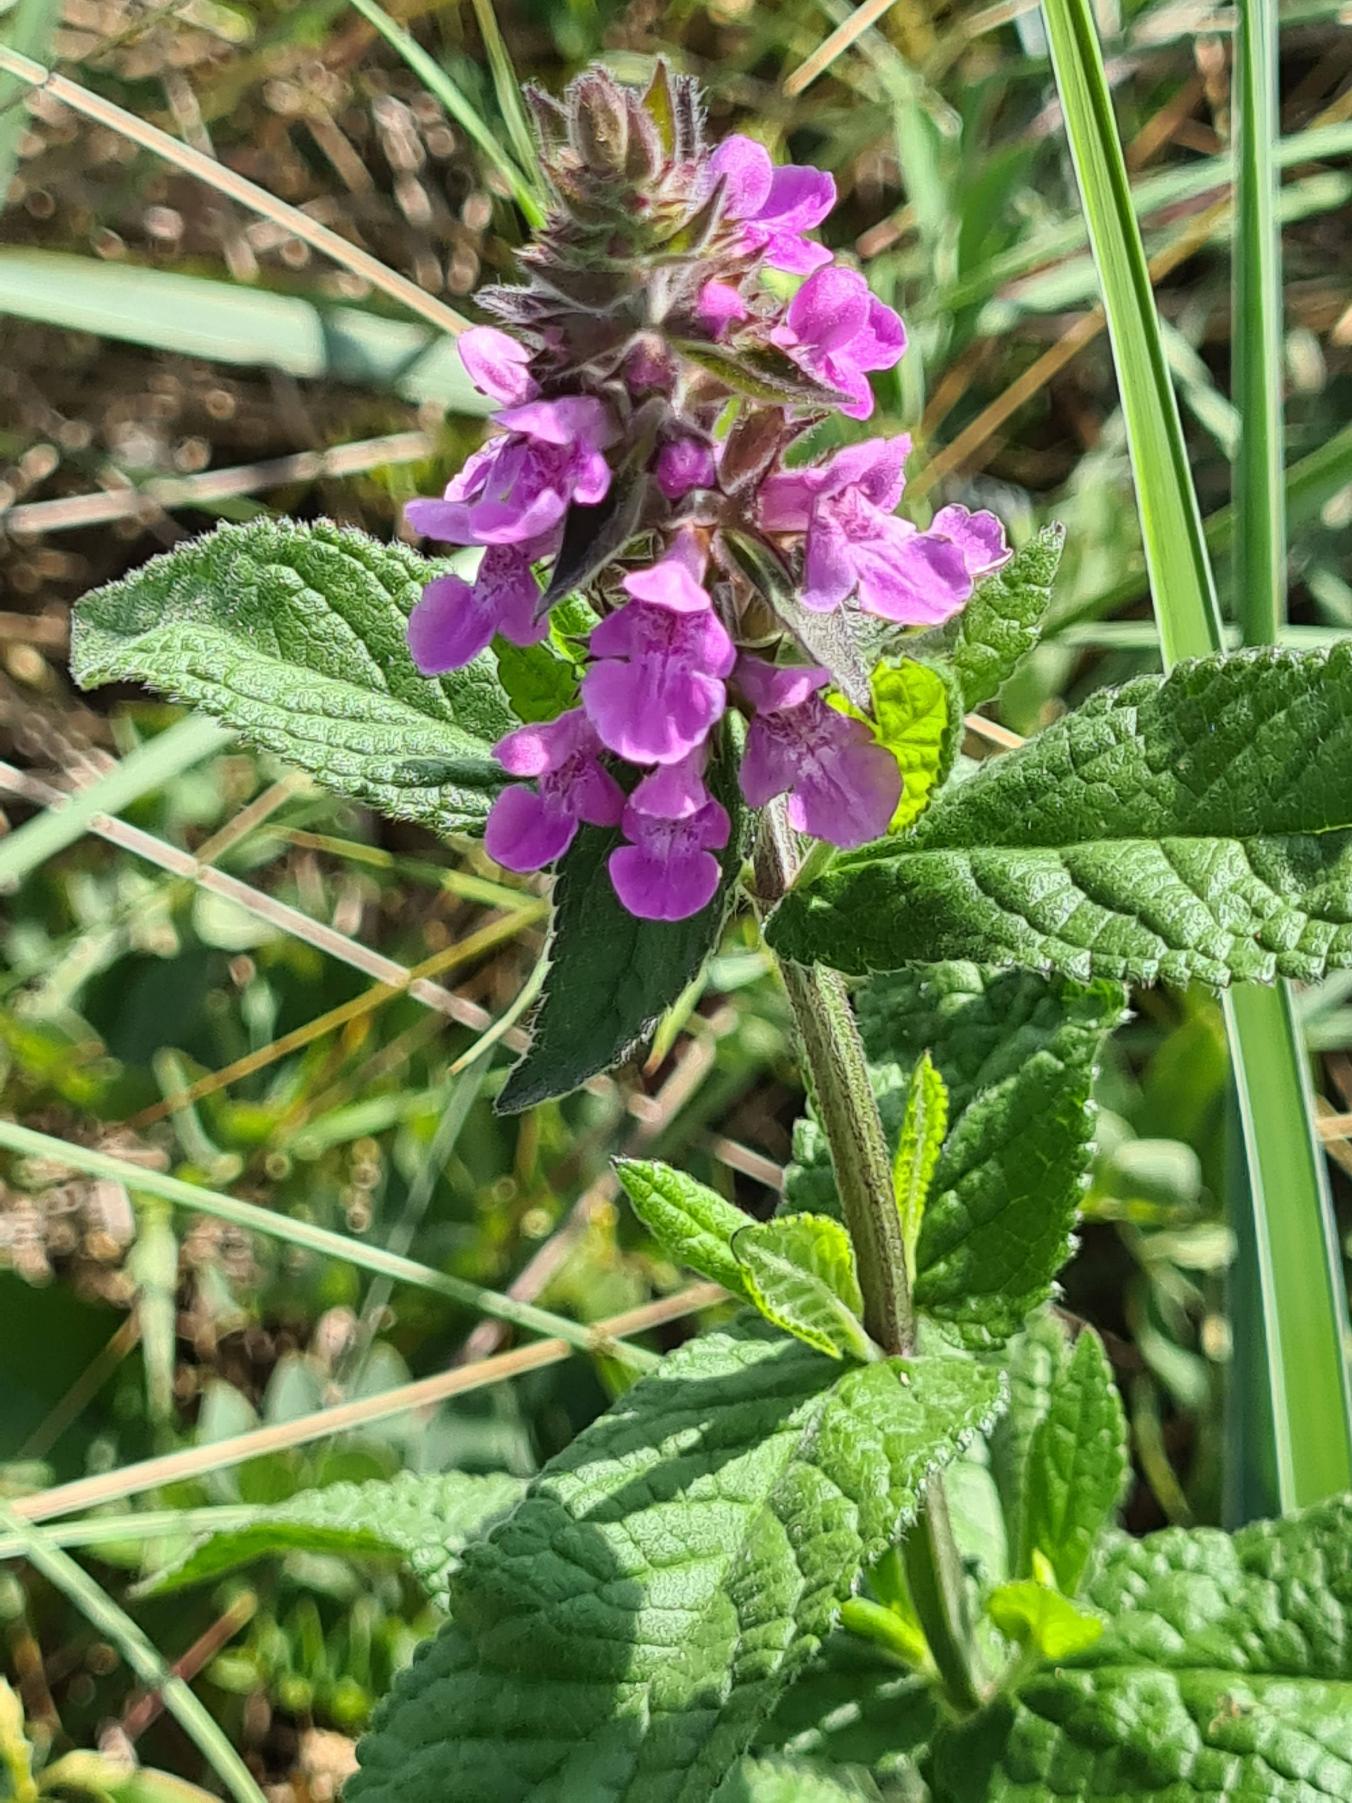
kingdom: Plantae
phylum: Tracheophyta
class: Magnoliopsida
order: Lamiales
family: Lamiaceae
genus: Stachys
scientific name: Stachys palustris
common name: Kær-galtetand
